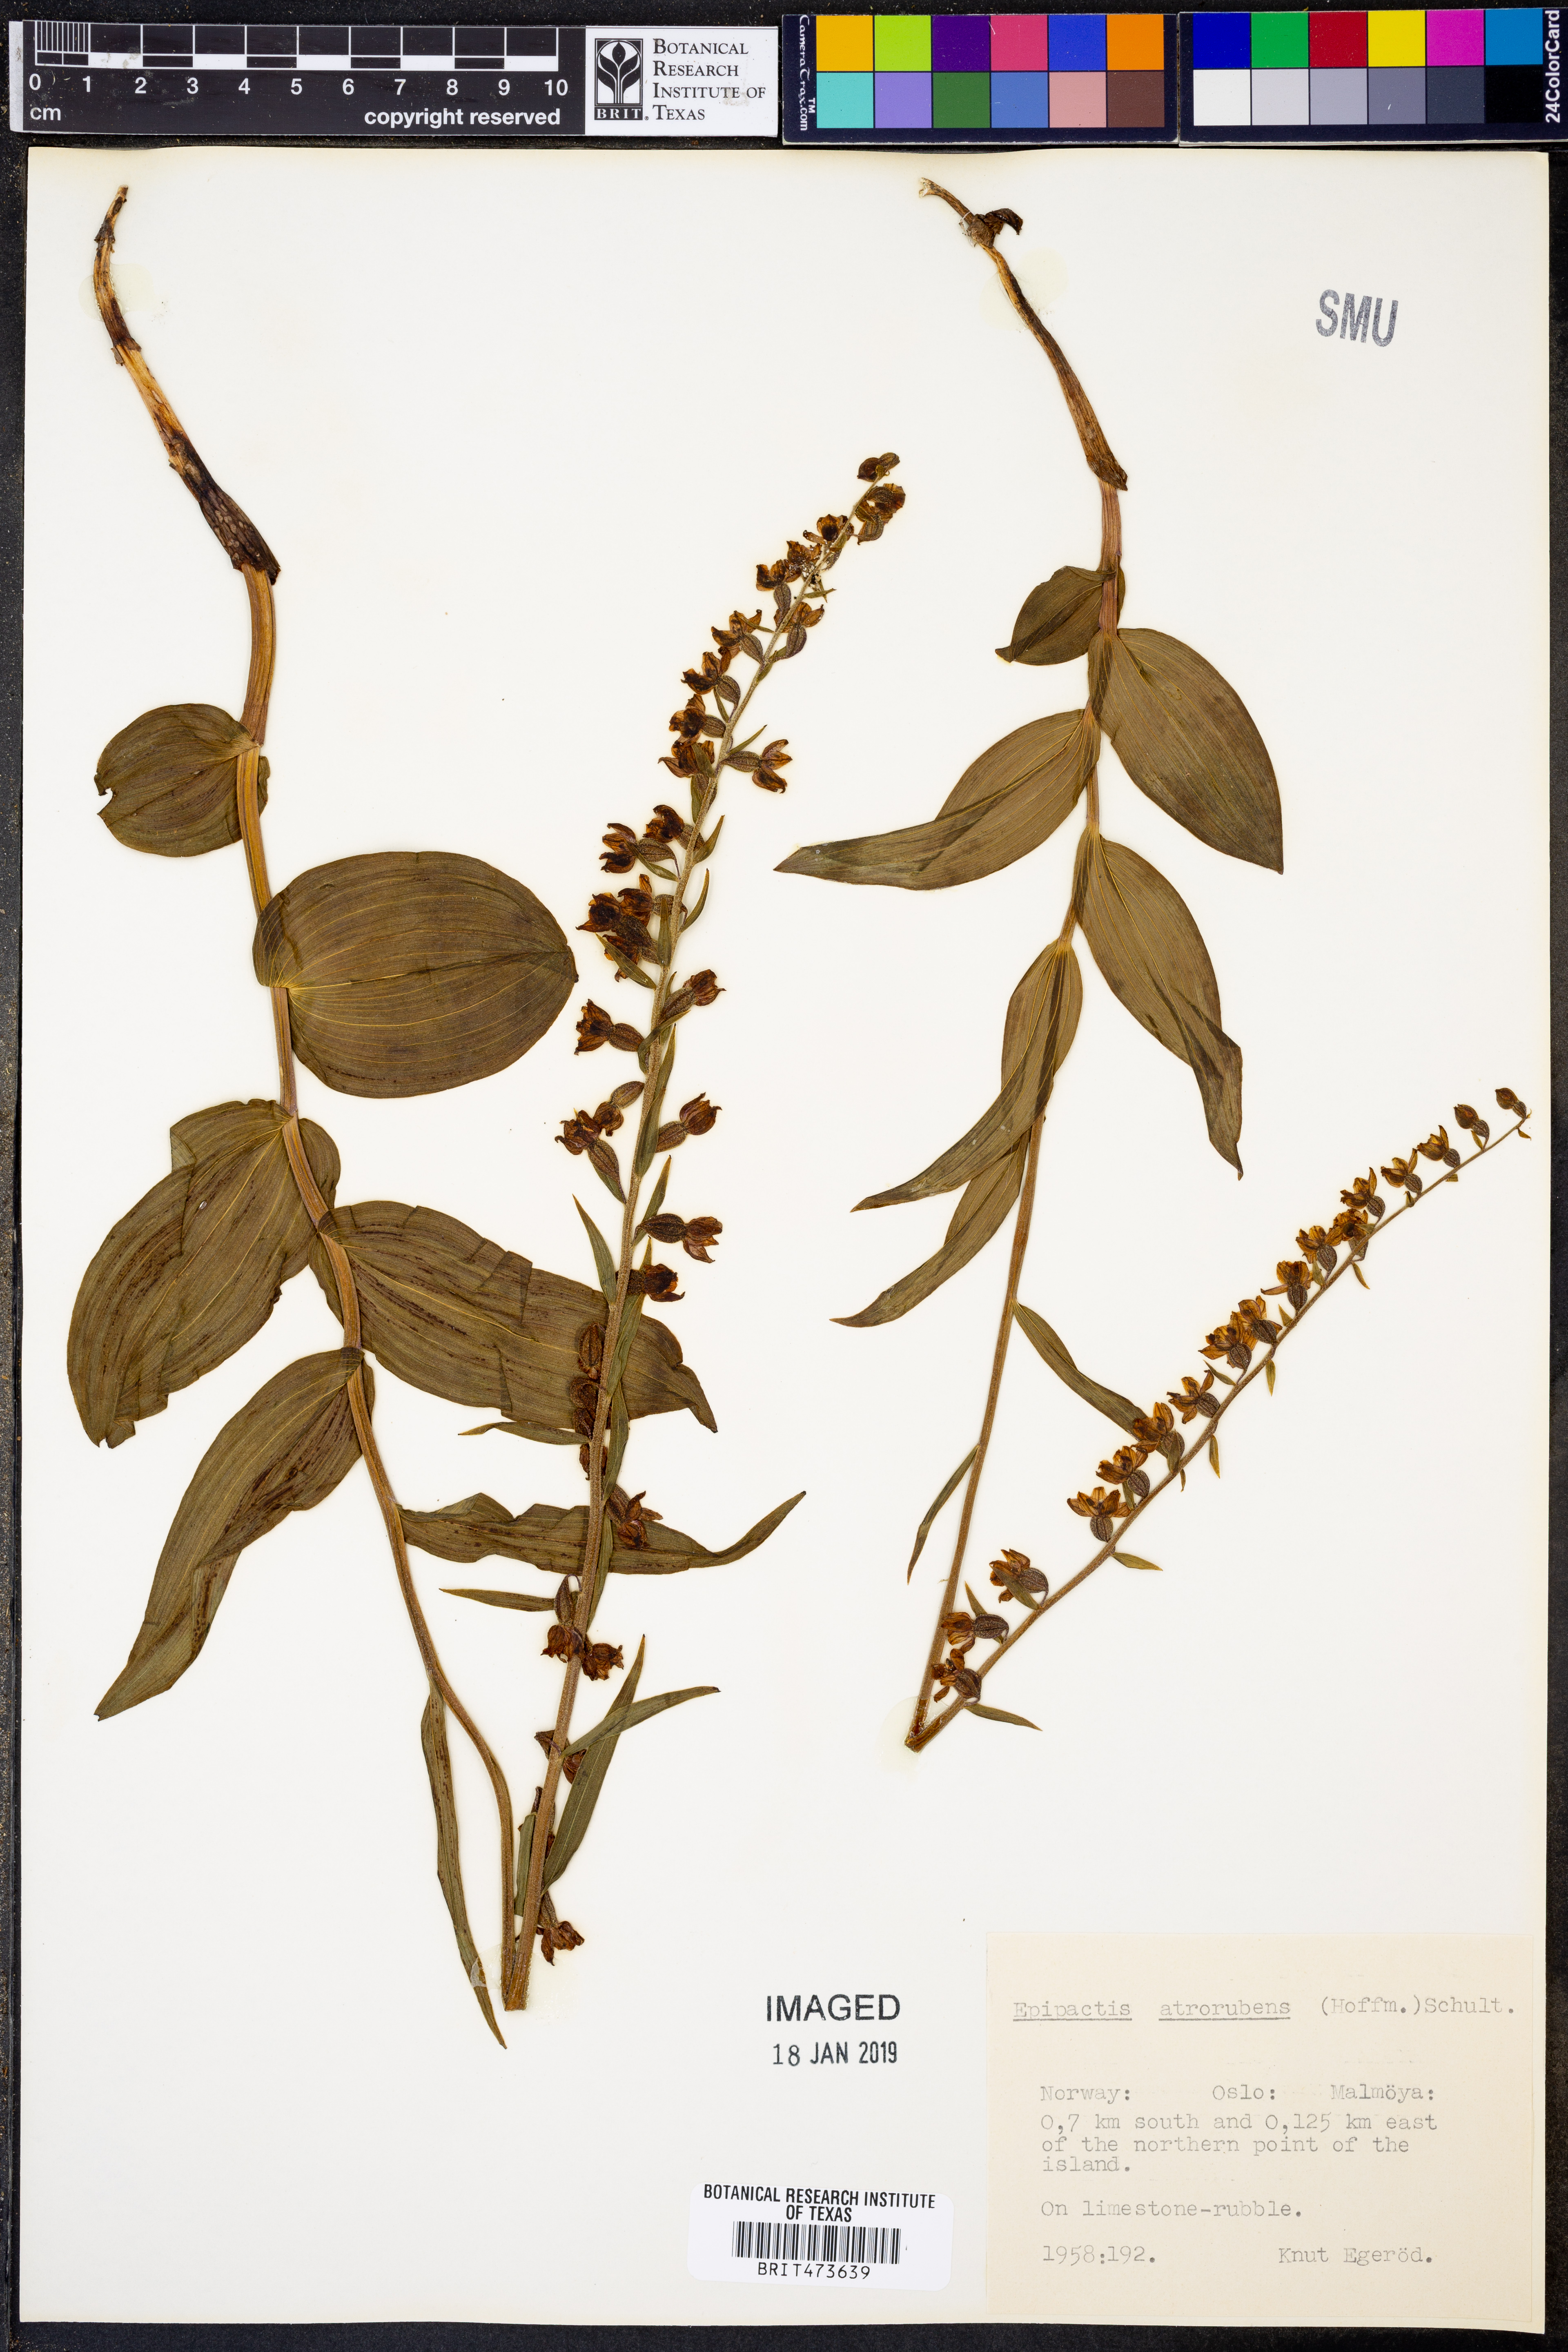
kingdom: Plantae
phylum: Tracheophyta
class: Liliopsida
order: Asparagales
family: Orchidaceae
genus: Epipactis
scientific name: Epipactis atrorubens
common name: Dark-red helleborine
